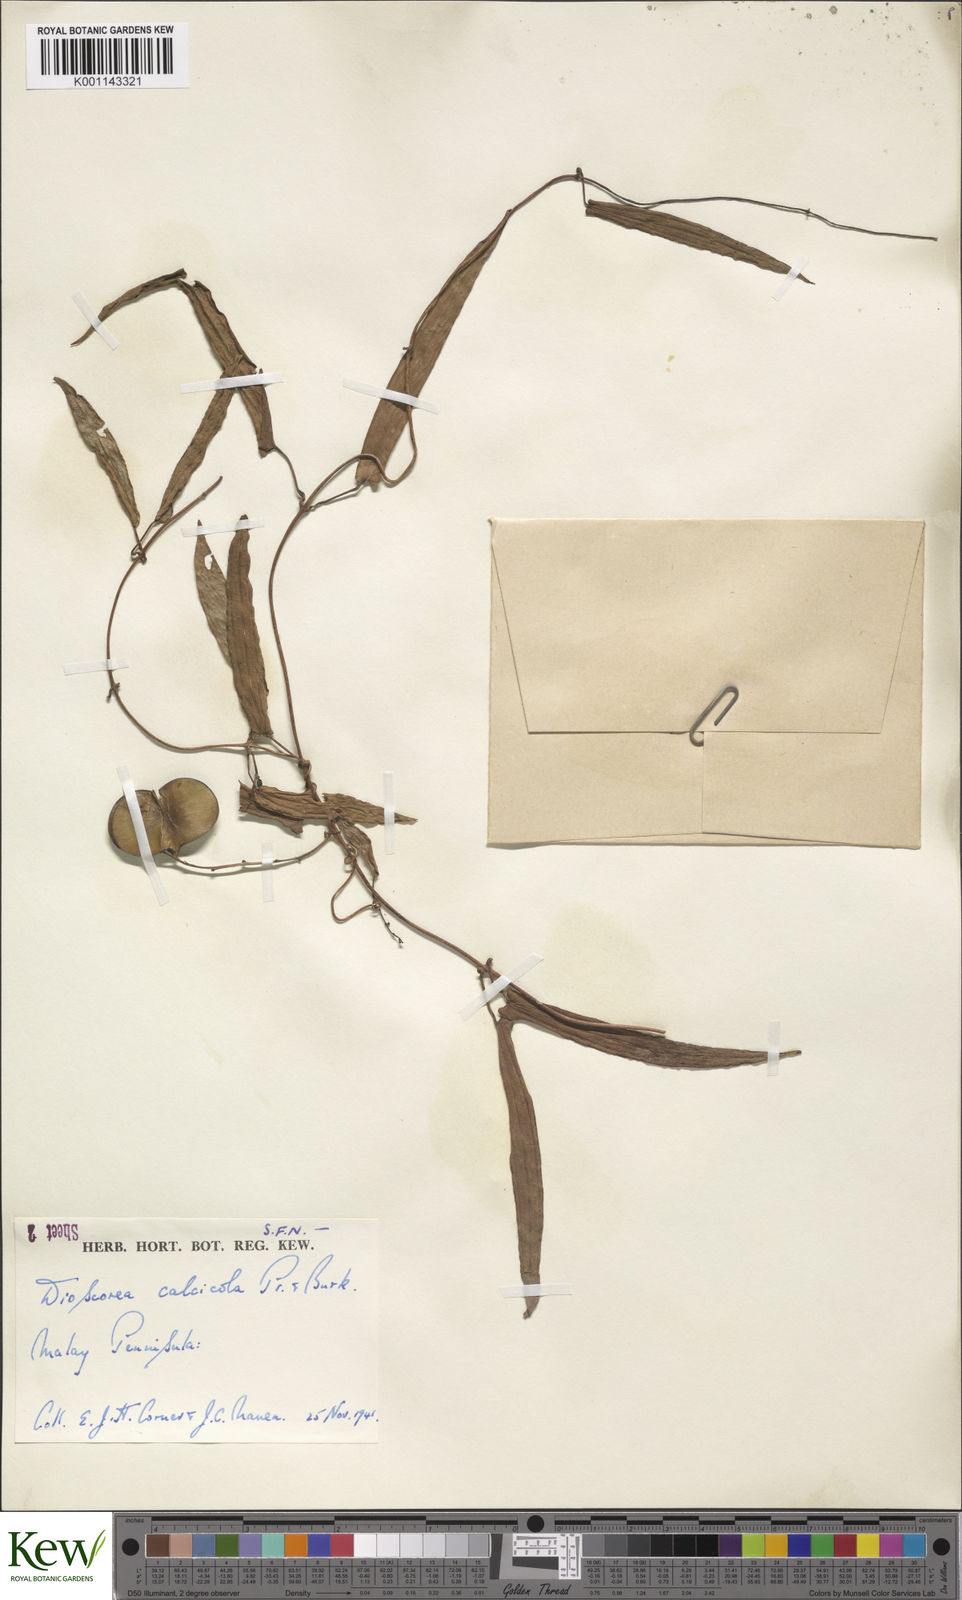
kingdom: Plantae
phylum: Tracheophyta
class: Liliopsida
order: Dioscoreales
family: Dioscoreaceae
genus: Dioscorea
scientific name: Dioscorea calcicola
